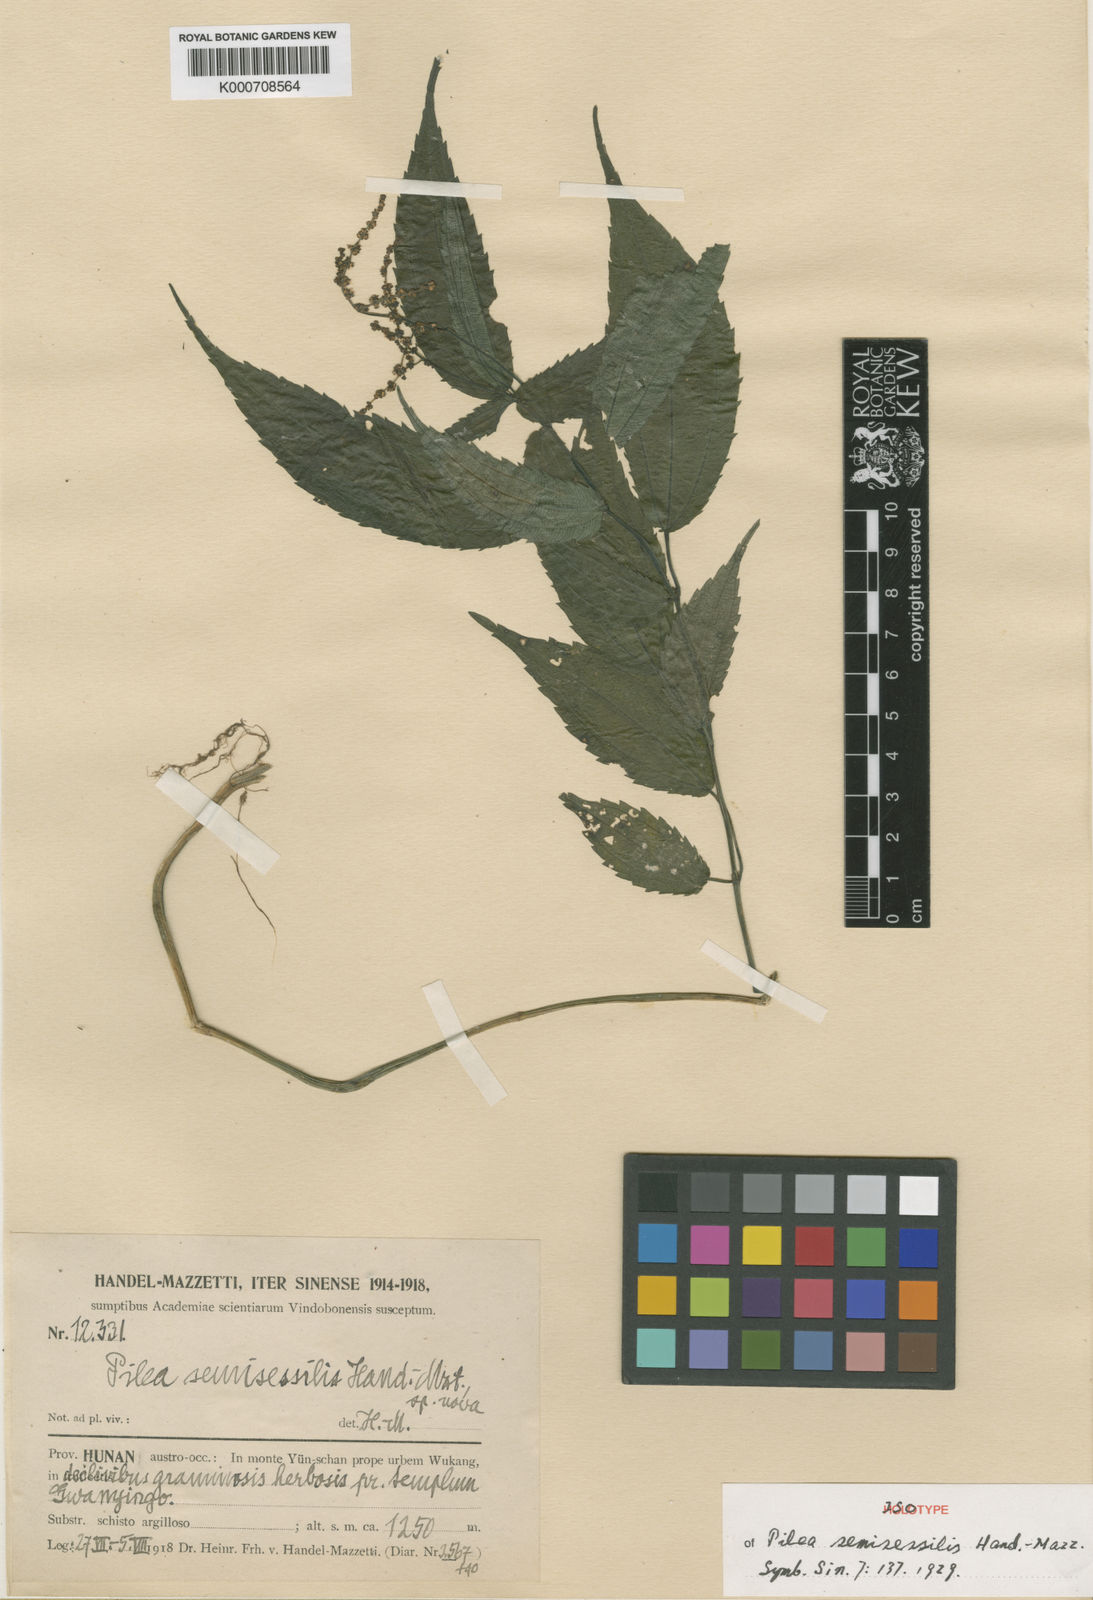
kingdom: Plantae
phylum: Tracheophyta
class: Magnoliopsida
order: Rosales
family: Urticaceae
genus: Pilea
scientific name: Pilea semisessilis
